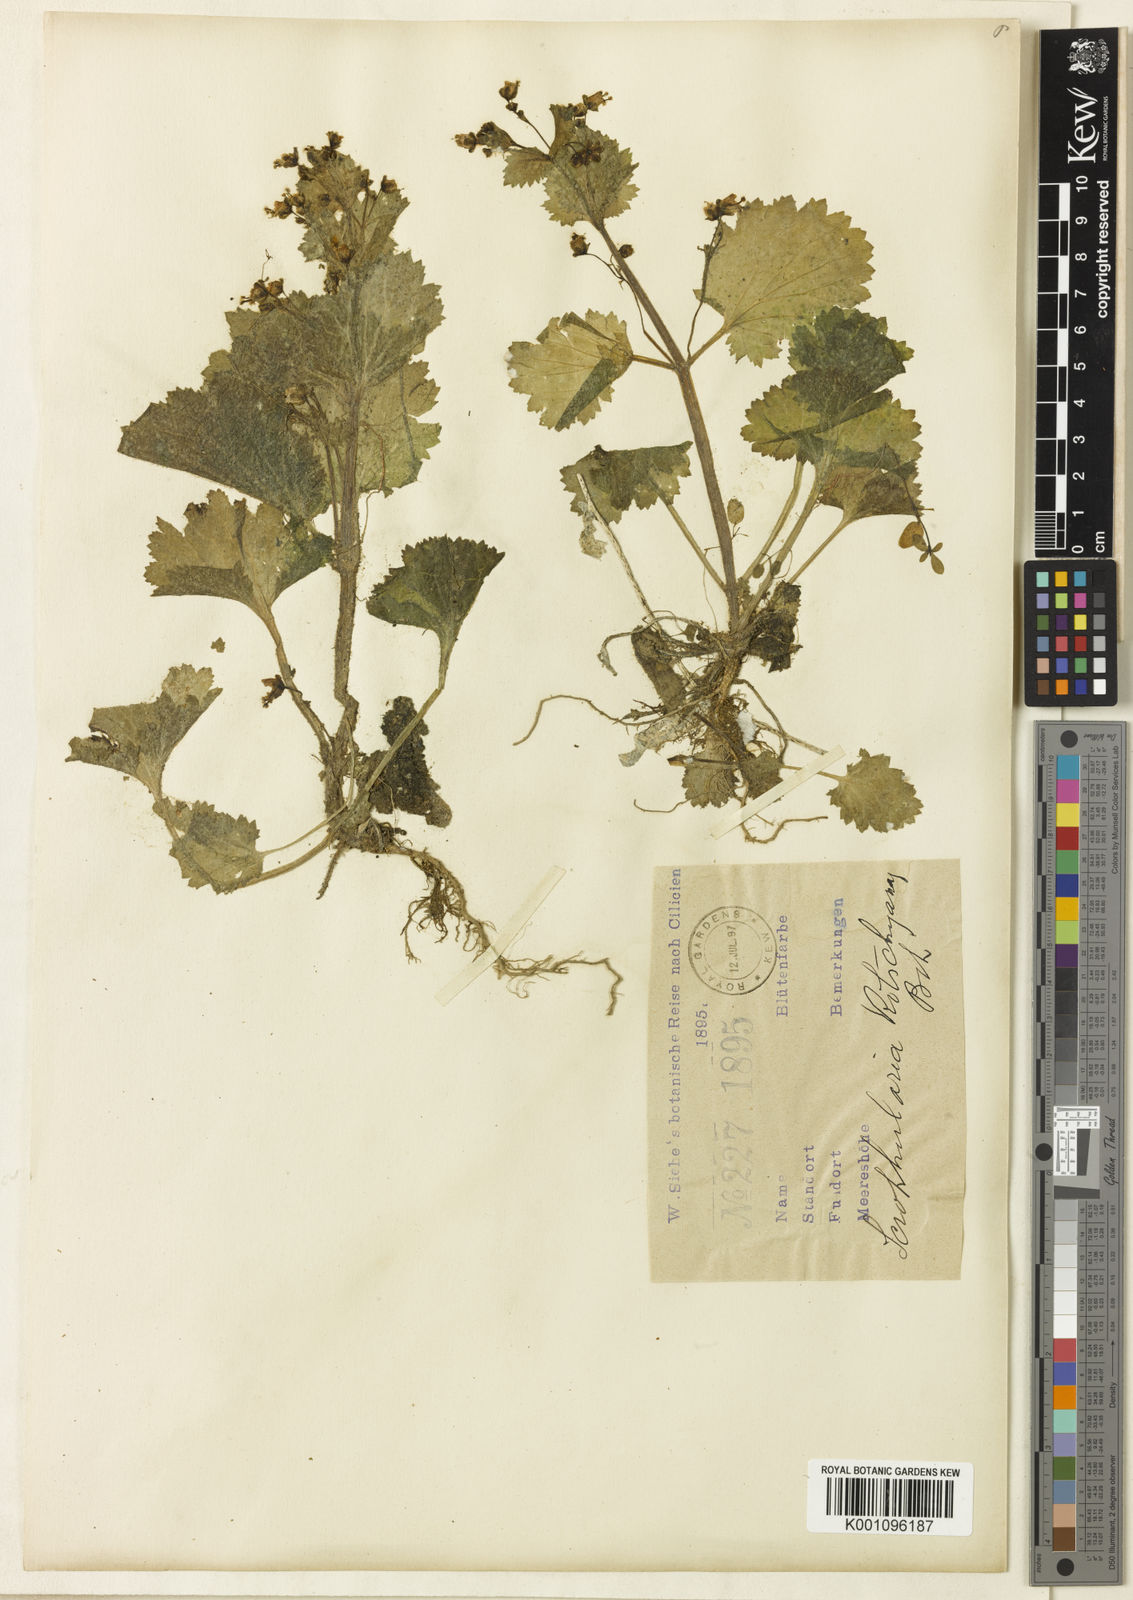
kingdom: Plantae
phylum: Tracheophyta
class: Magnoliopsida
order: Lamiales
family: Scrophulariaceae
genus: Scrophularia
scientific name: Scrophularia kotschyana
